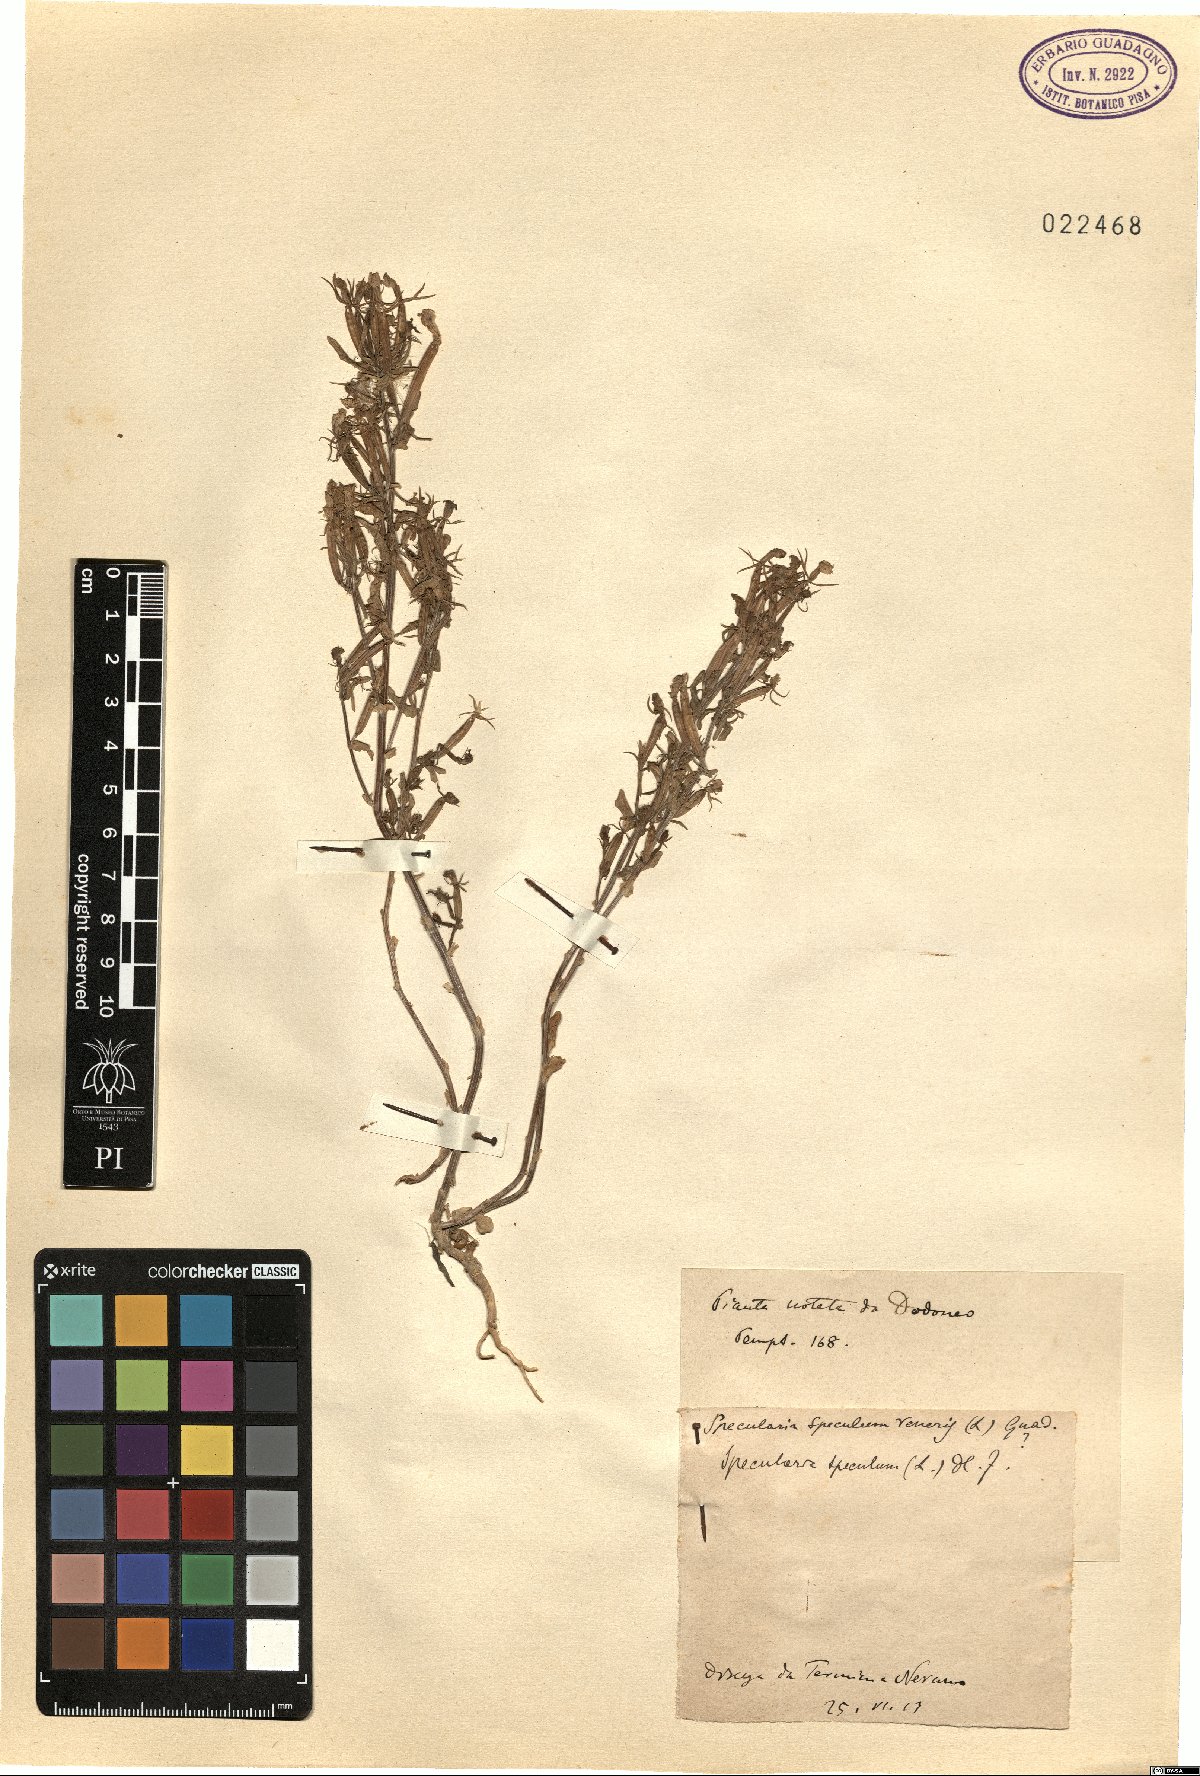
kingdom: Plantae
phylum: Tracheophyta
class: Magnoliopsida
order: Asterales
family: Campanulaceae
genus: Legousia
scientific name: Legousia speculum-veneris
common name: Large venus's-looking-glass
